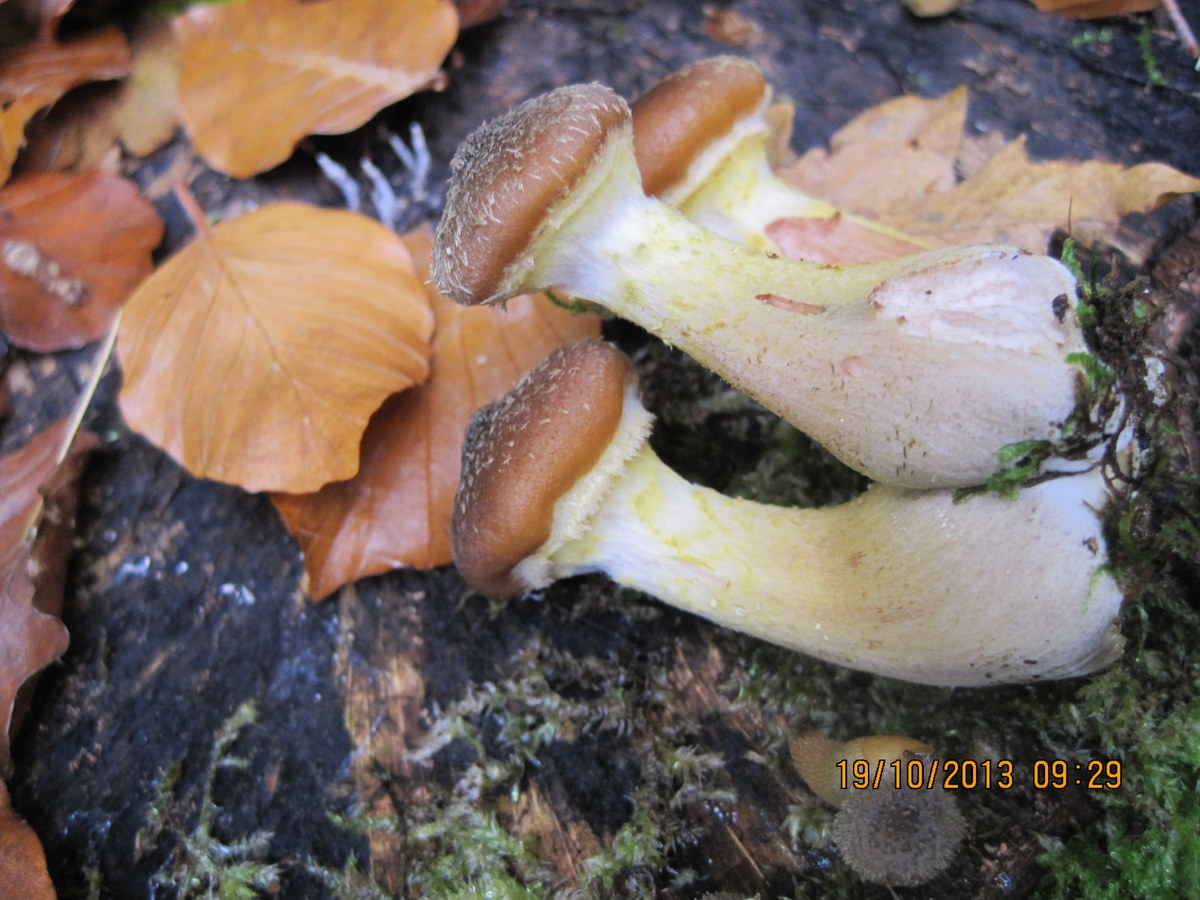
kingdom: Fungi
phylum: Basidiomycota
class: Agaricomycetes
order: Agaricales
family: Physalacriaceae
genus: Armillaria
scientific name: Armillaria lutea
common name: køllestokket honningsvamp
